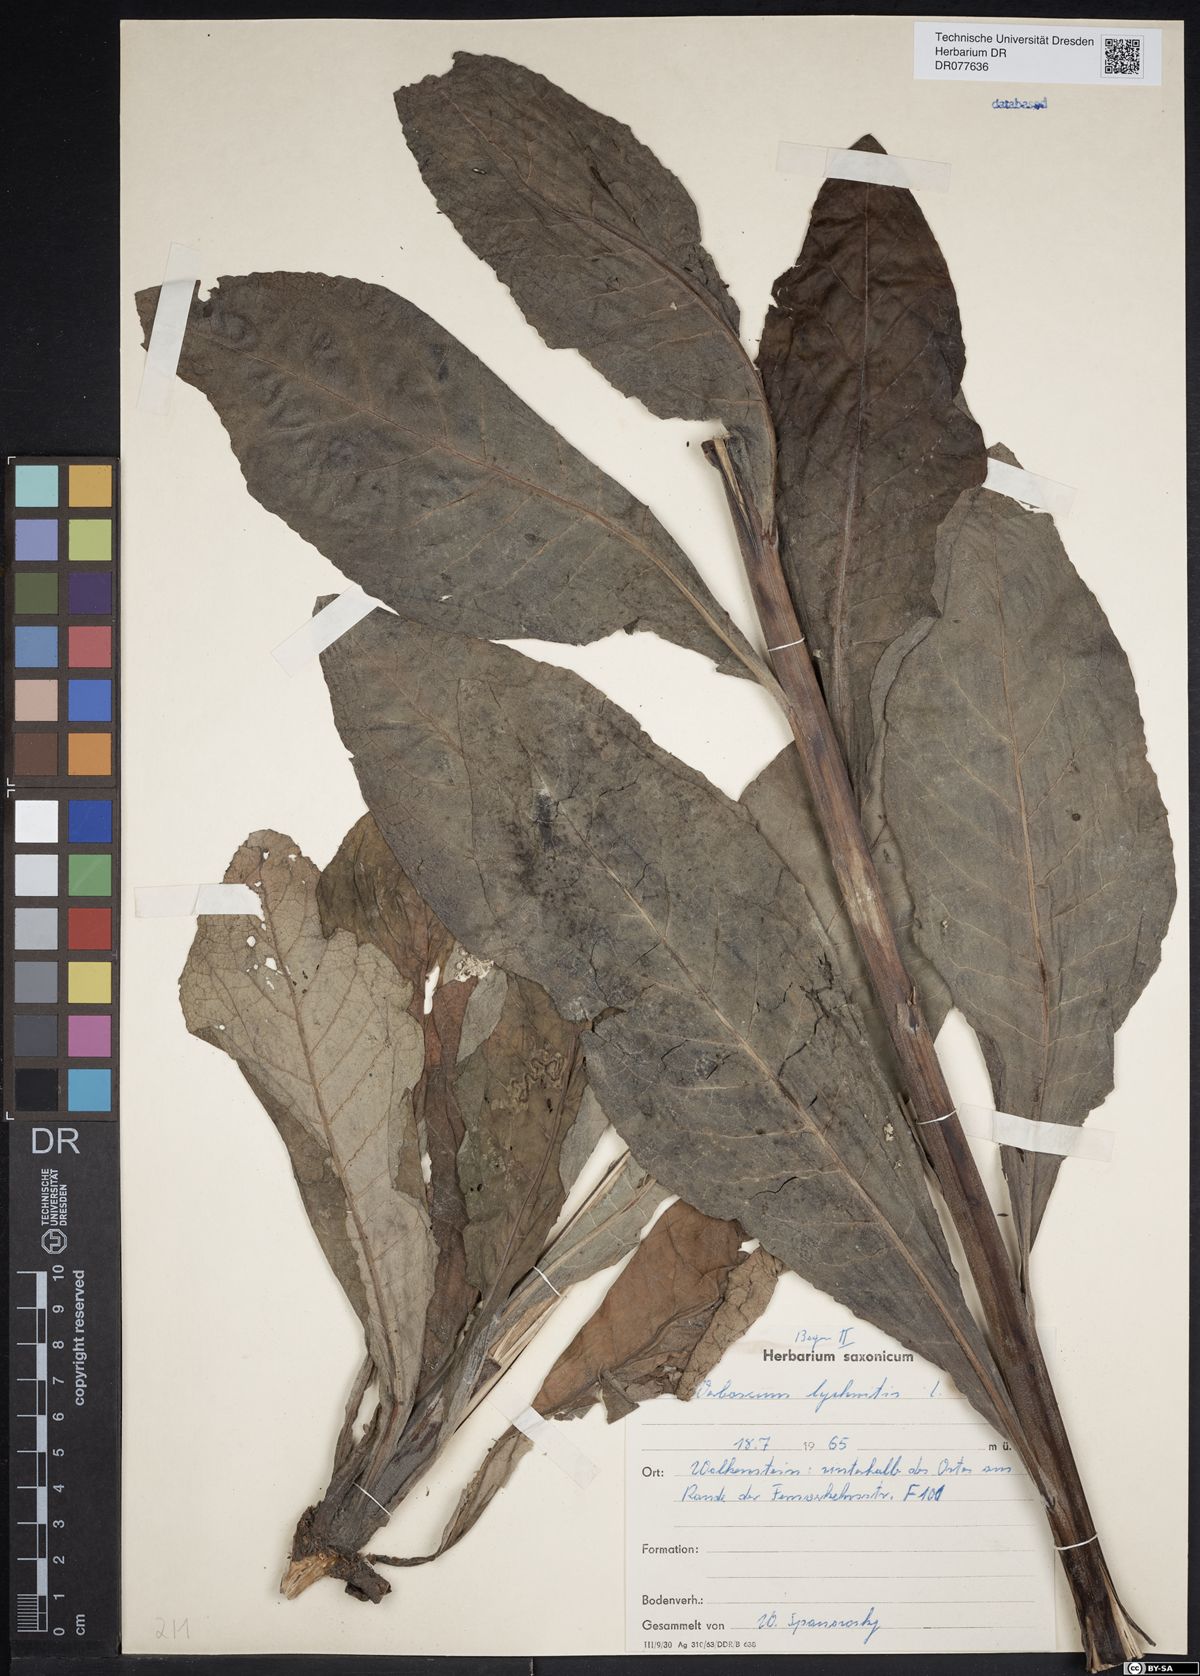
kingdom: Plantae
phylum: Tracheophyta
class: Magnoliopsida
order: Lamiales
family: Scrophulariaceae
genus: Verbascum
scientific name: Verbascum lychnitis
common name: White mullein
